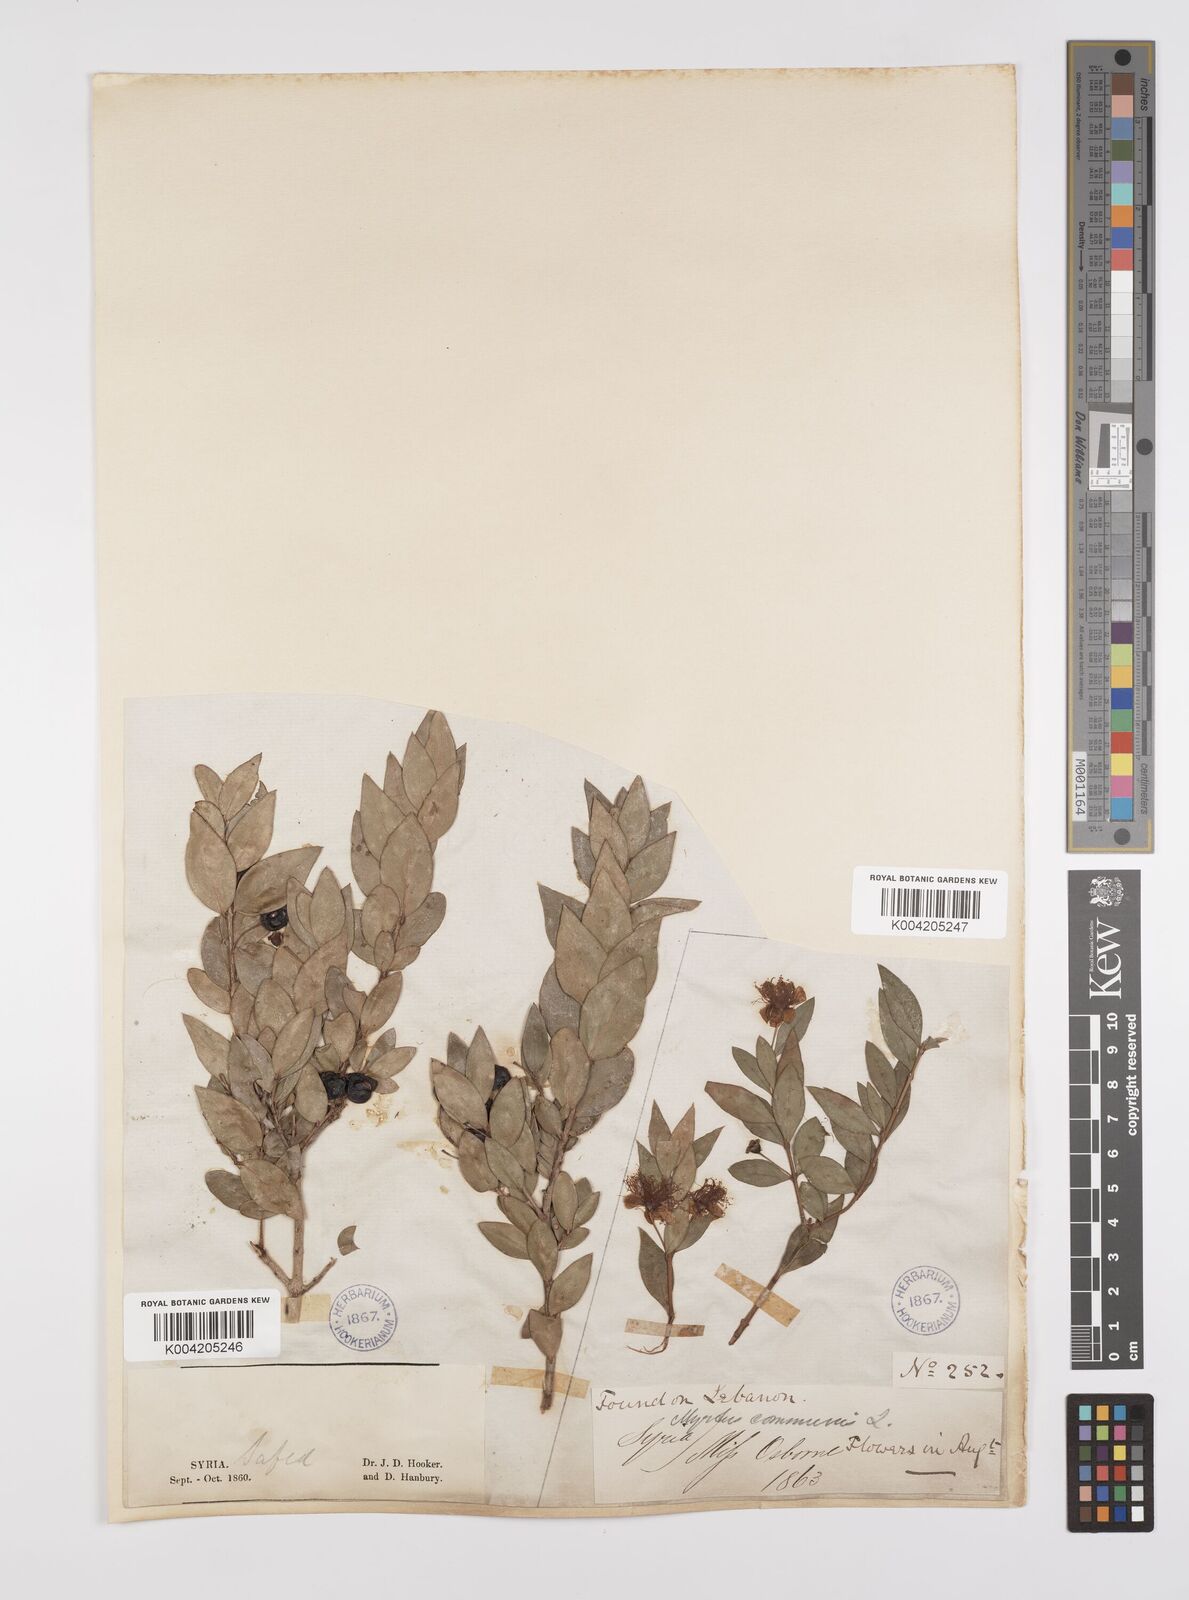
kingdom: Plantae
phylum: Tracheophyta
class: Magnoliopsida
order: Myrtales
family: Myrtaceae
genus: Myrtus
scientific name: Myrtus communis
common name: Myrtle
